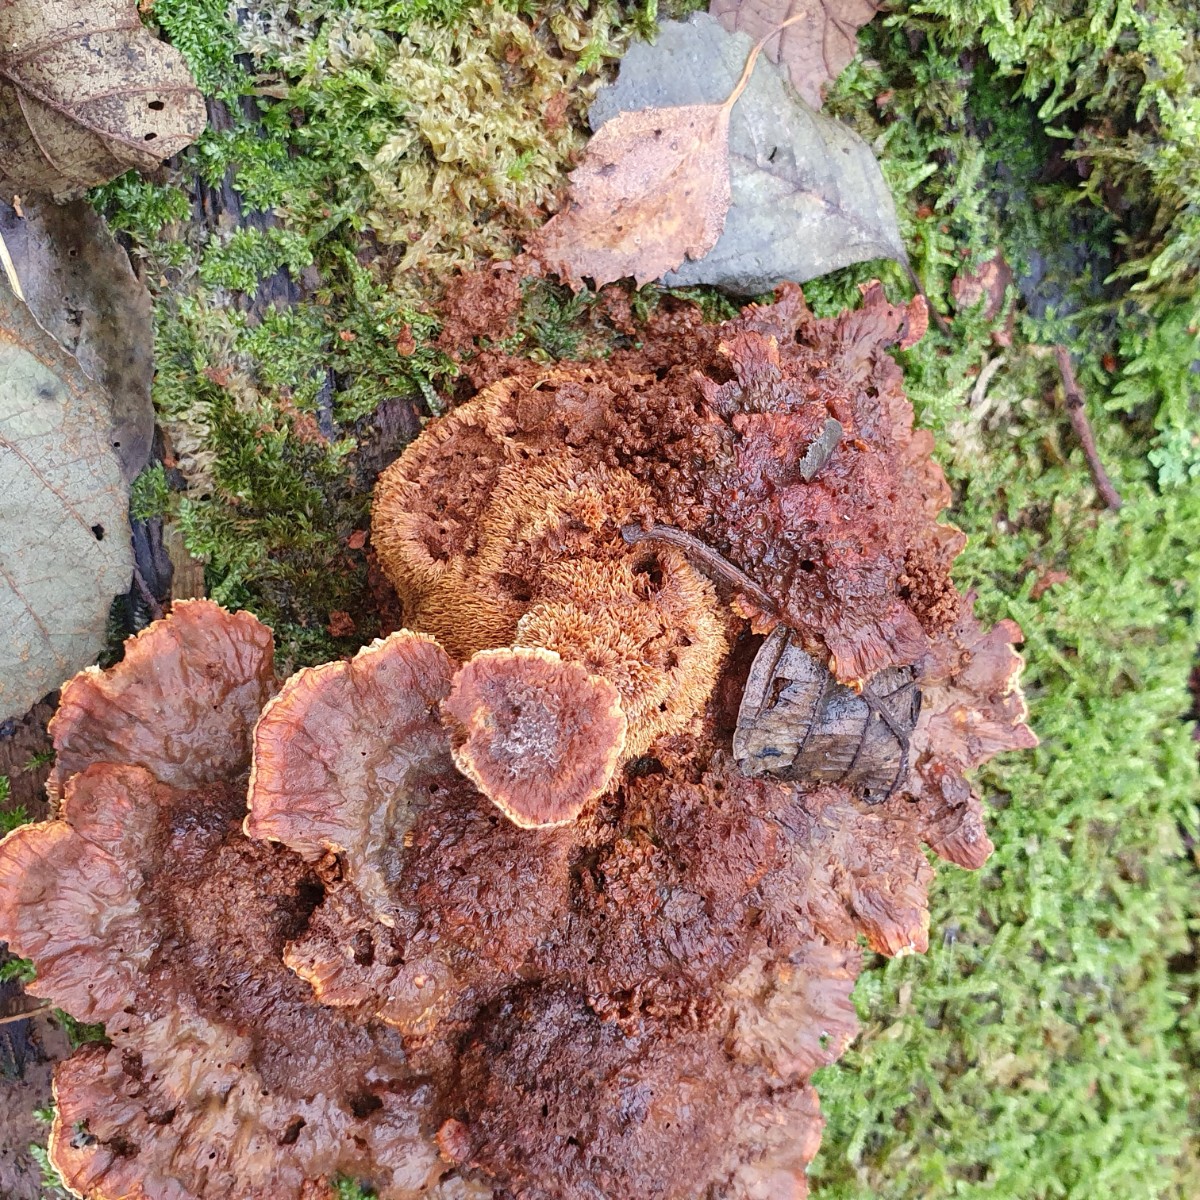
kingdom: Fungi
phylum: Basidiomycota
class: Agaricomycetes
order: Hymenochaetales
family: Hymenochaetaceae
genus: Xanthoporia
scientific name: Xanthoporia radiata
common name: elle-spejlporesvamp
